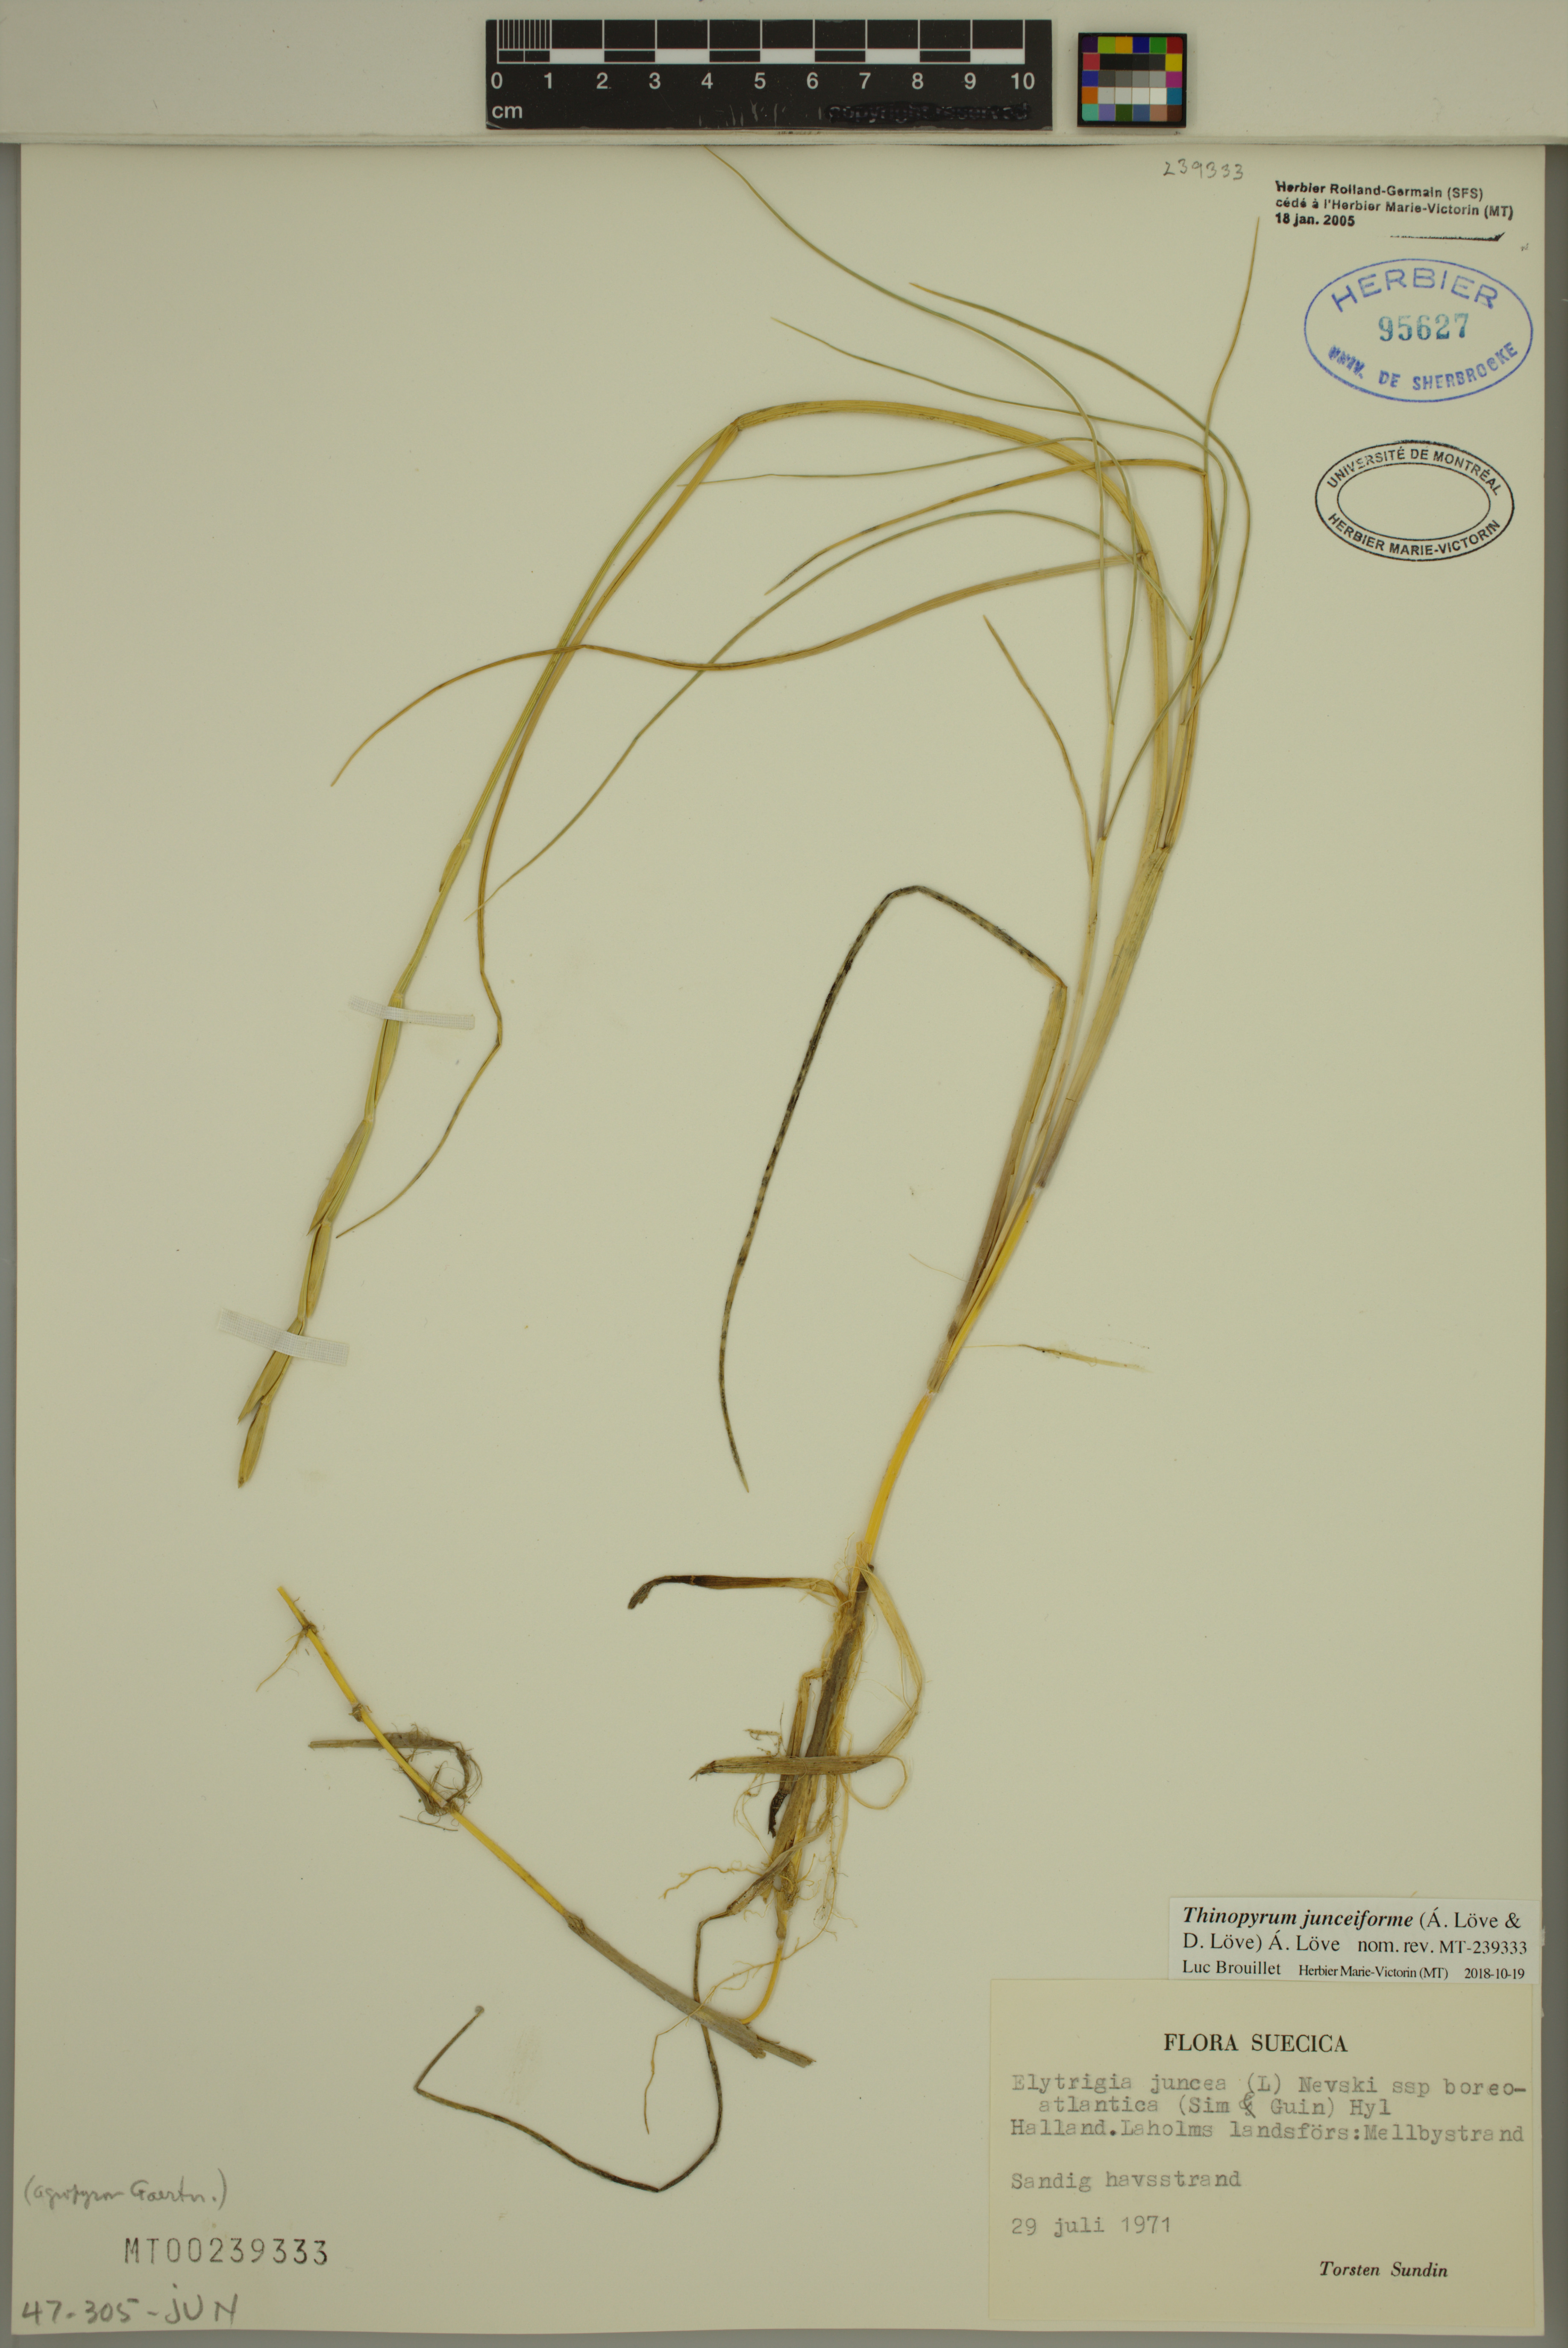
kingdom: Plantae
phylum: Tracheophyta
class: Liliopsida
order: Poales
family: Poaceae
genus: Thinopyrum
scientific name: Thinopyrum junceiforme
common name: Sea couch
